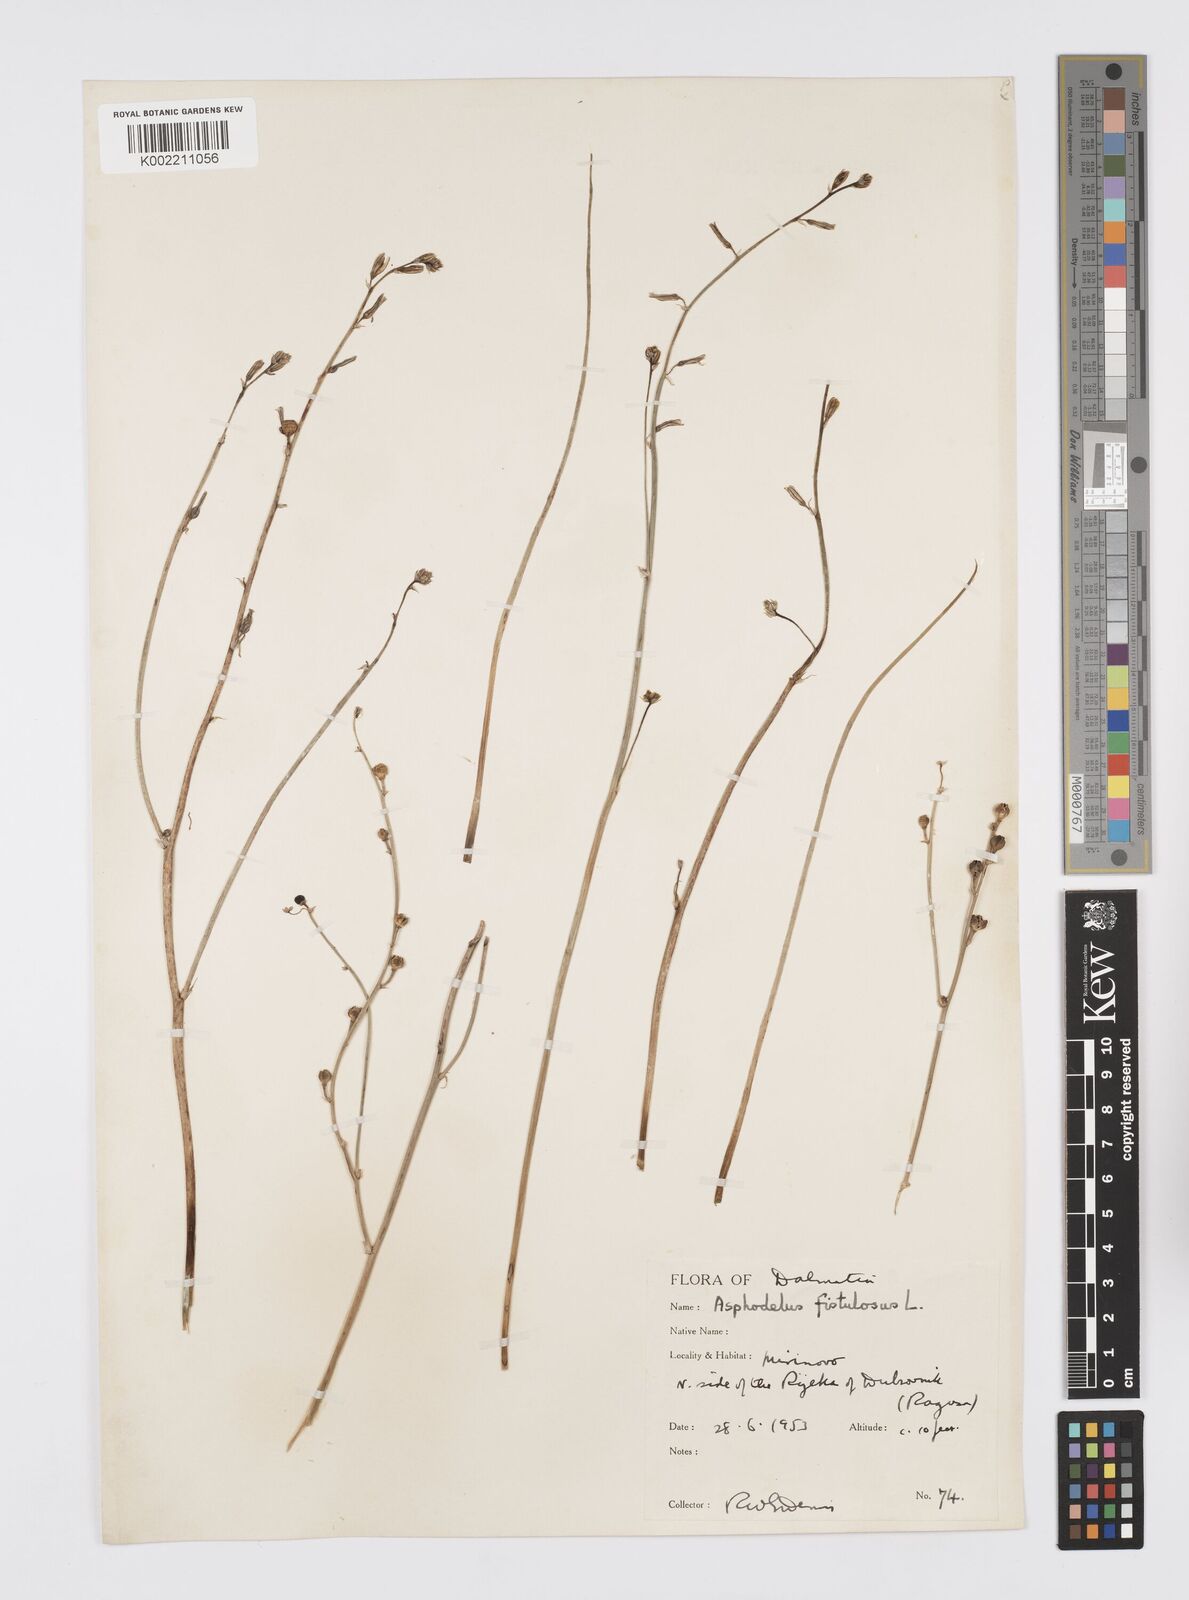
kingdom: Plantae
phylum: Tracheophyta
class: Liliopsida
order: Asparagales
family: Asphodelaceae
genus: Asphodelus
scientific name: Asphodelus fistulosus
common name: Onionweed
